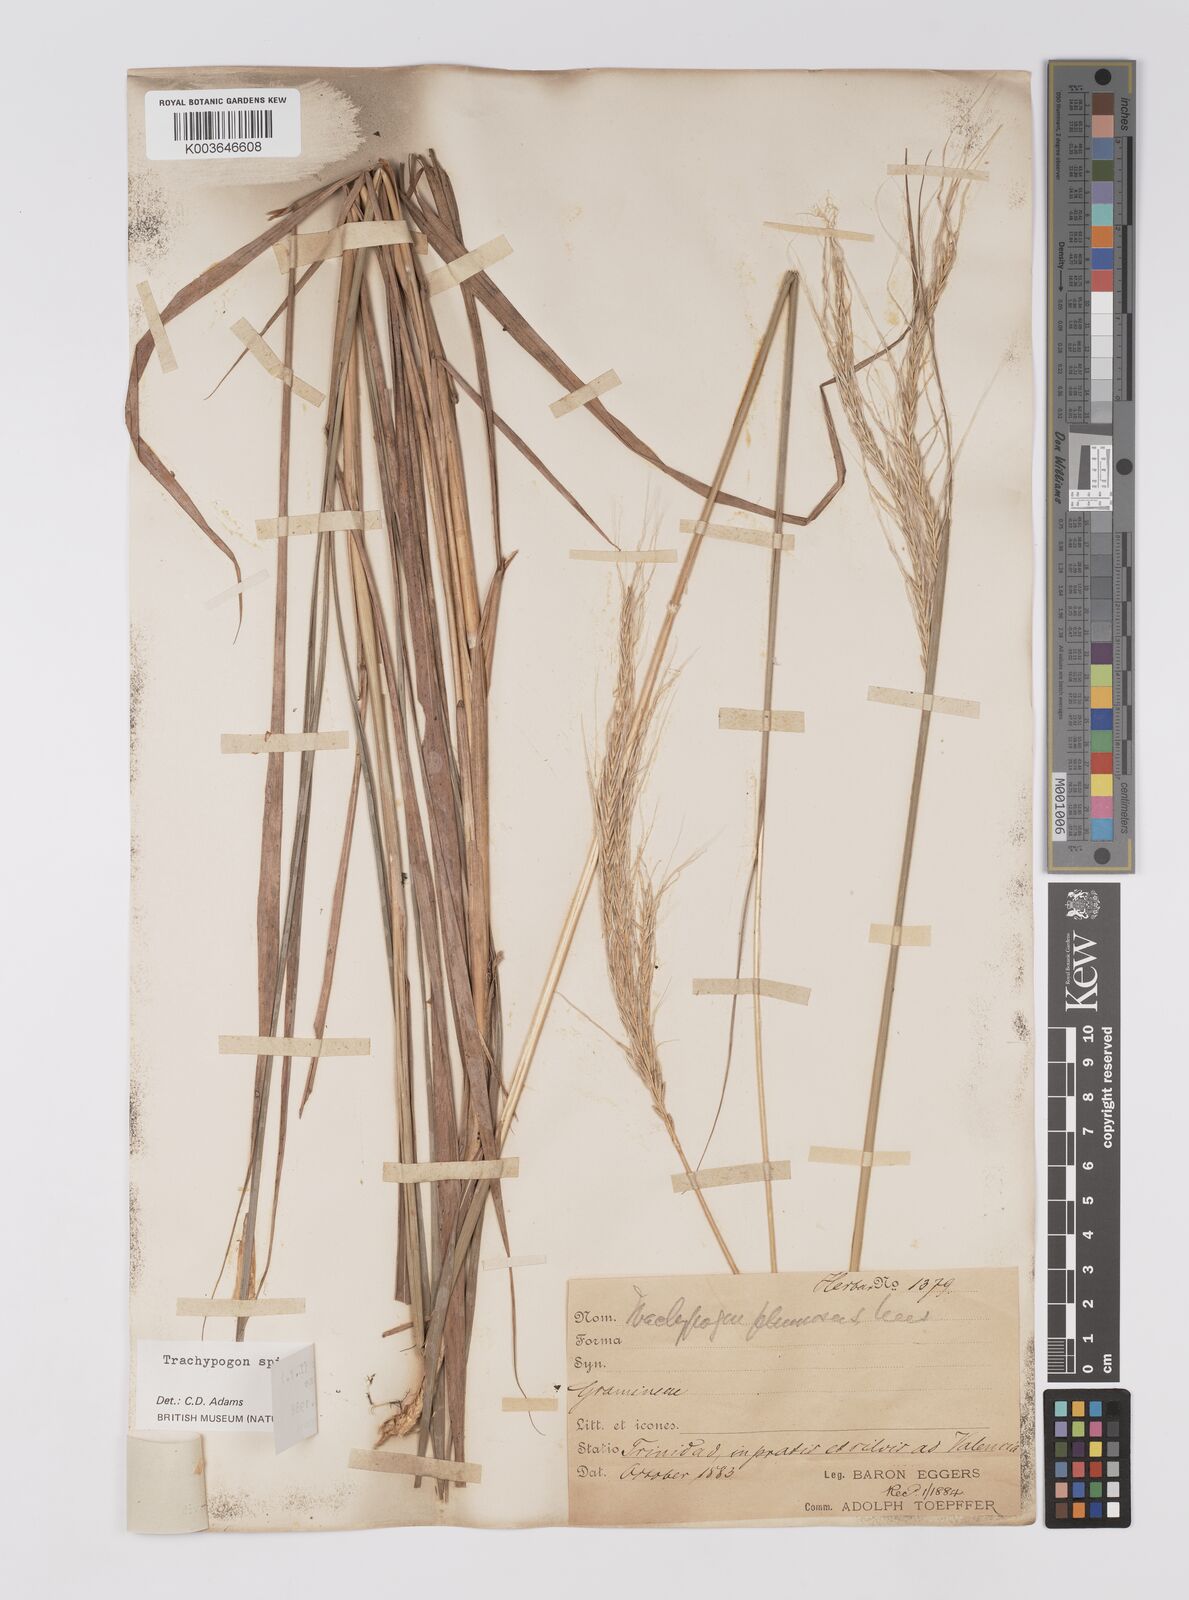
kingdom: Plantae
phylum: Tracheophyta
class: Liliopsida
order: Poales
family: Poaceae
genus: Trachypogon
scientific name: Trachypogon spicatus
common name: Crinkle-awn
